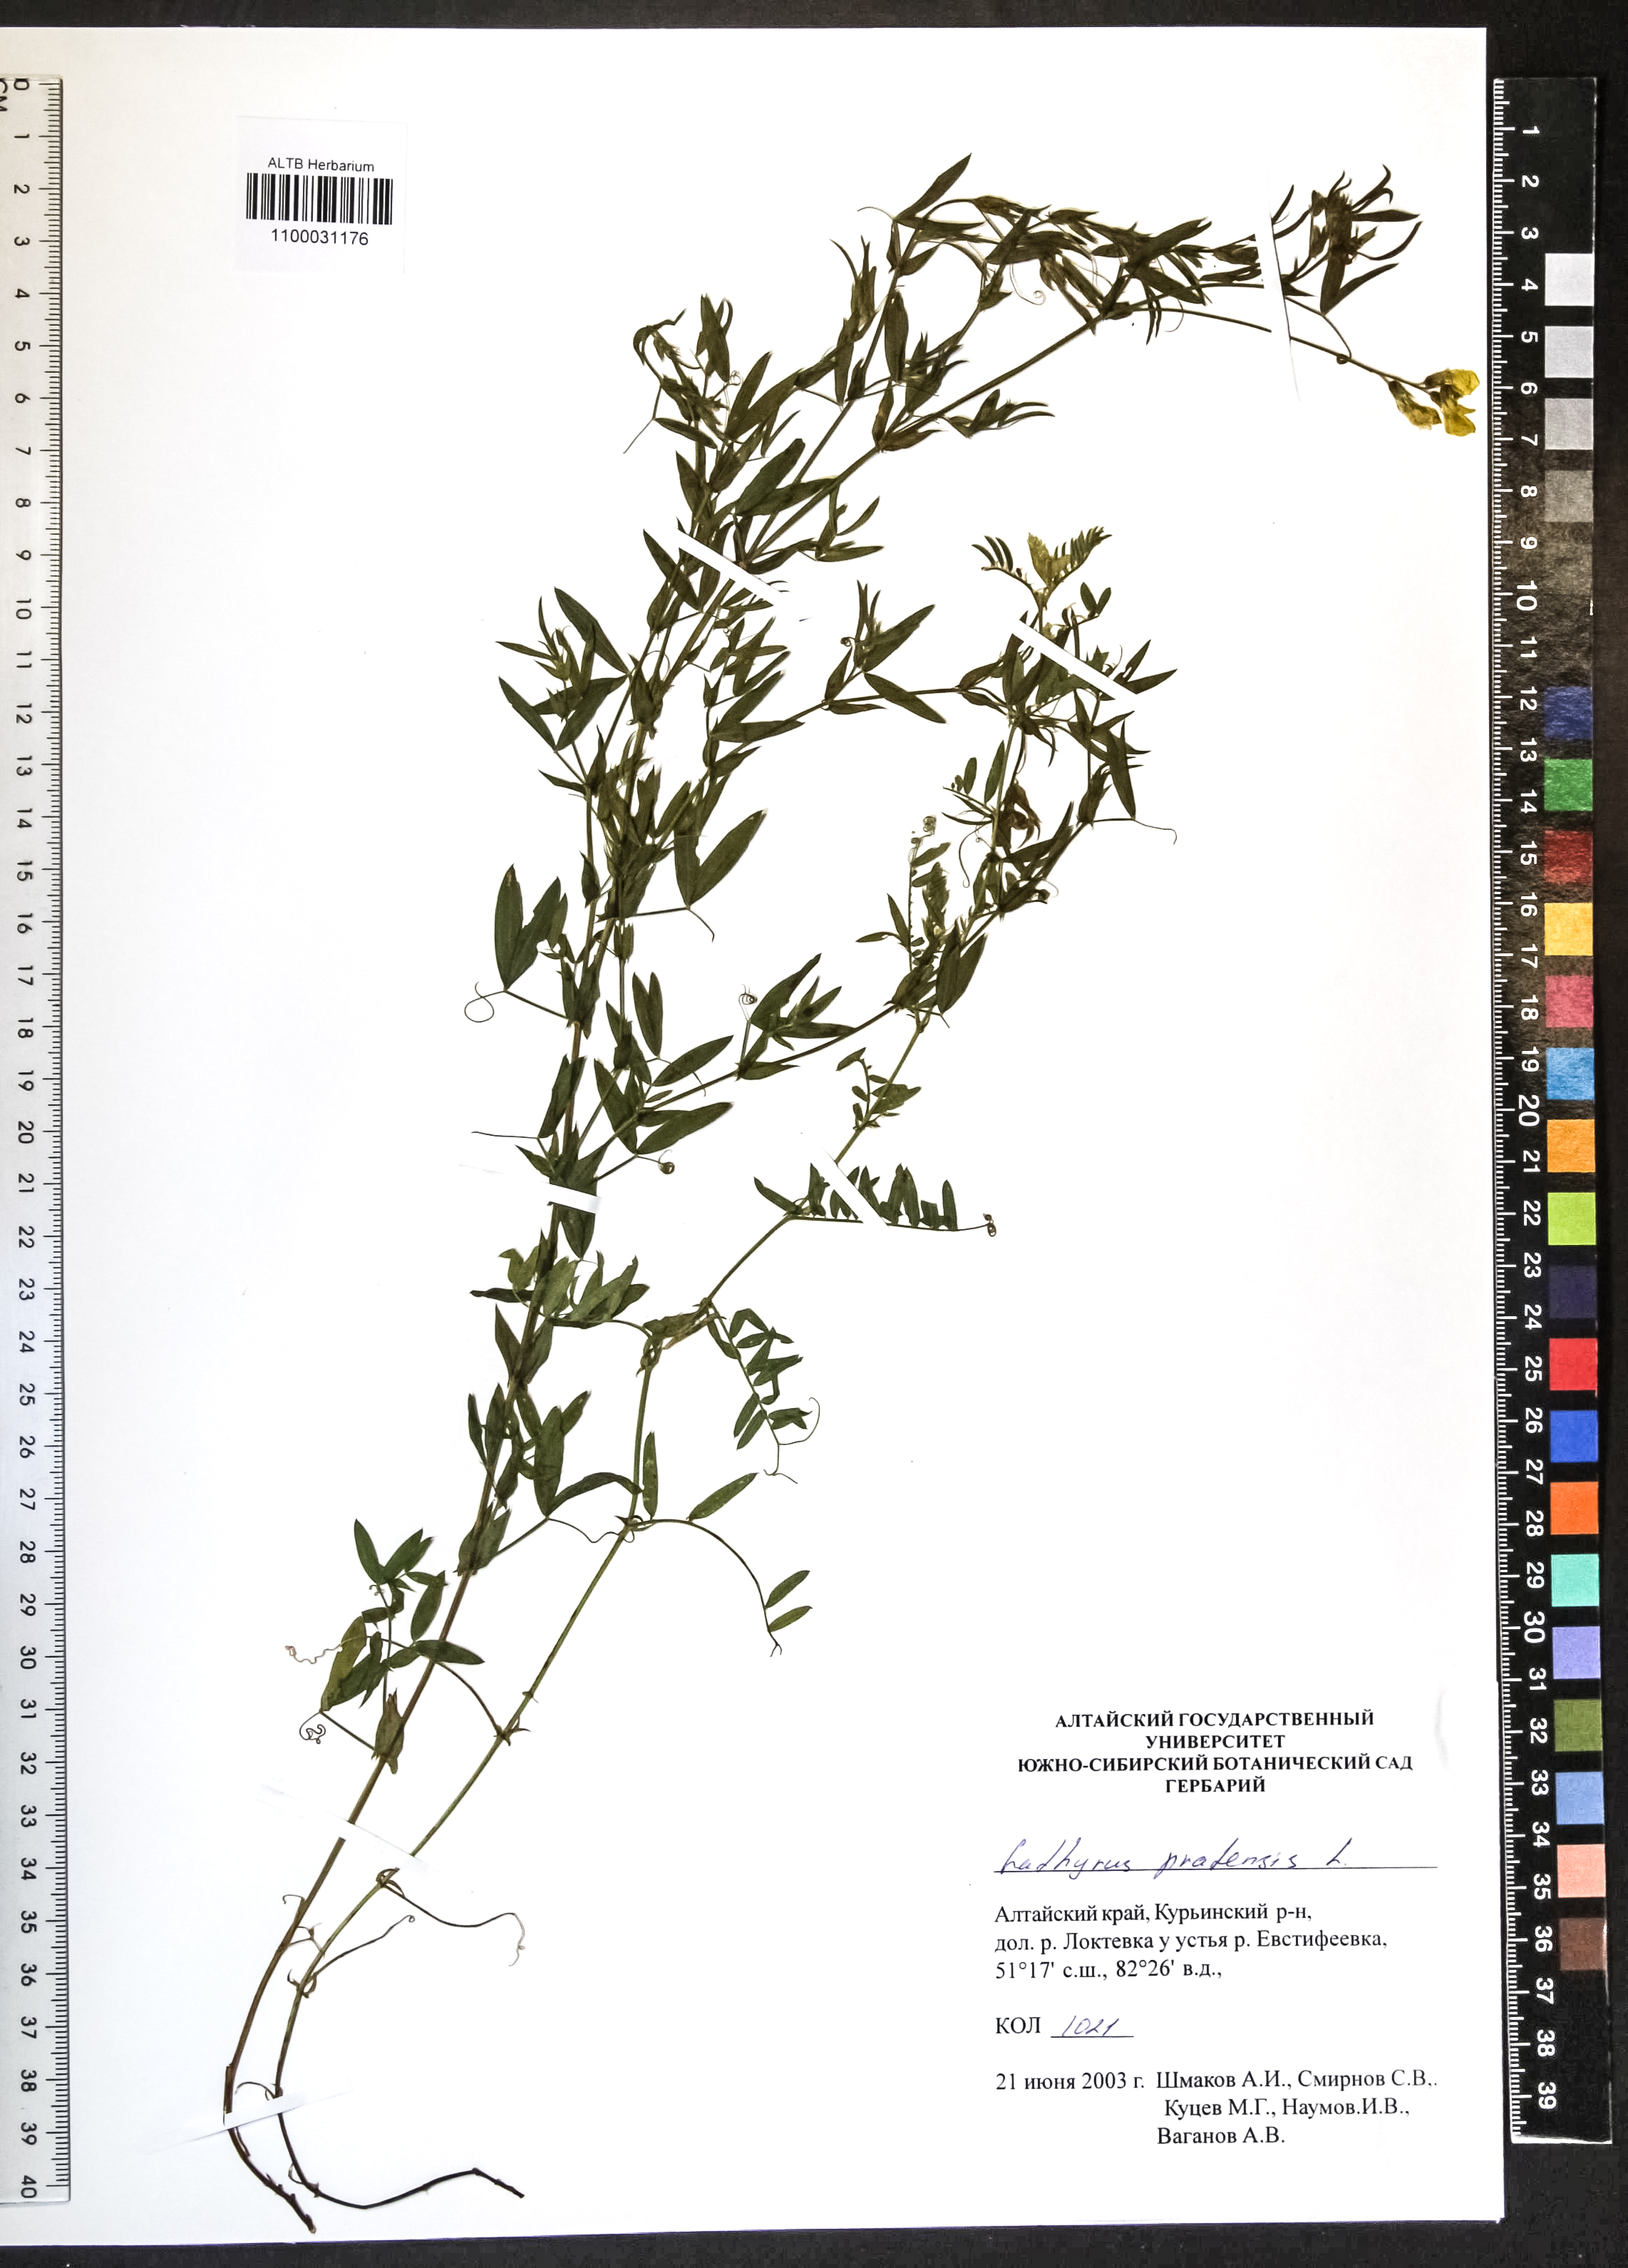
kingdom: Plantae
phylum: Tracheophyta
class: Magnoliopsida
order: Fabales
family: Fabaceae
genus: Lathyrus
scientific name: Lathyrus pratensis
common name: Meadow vetchling
